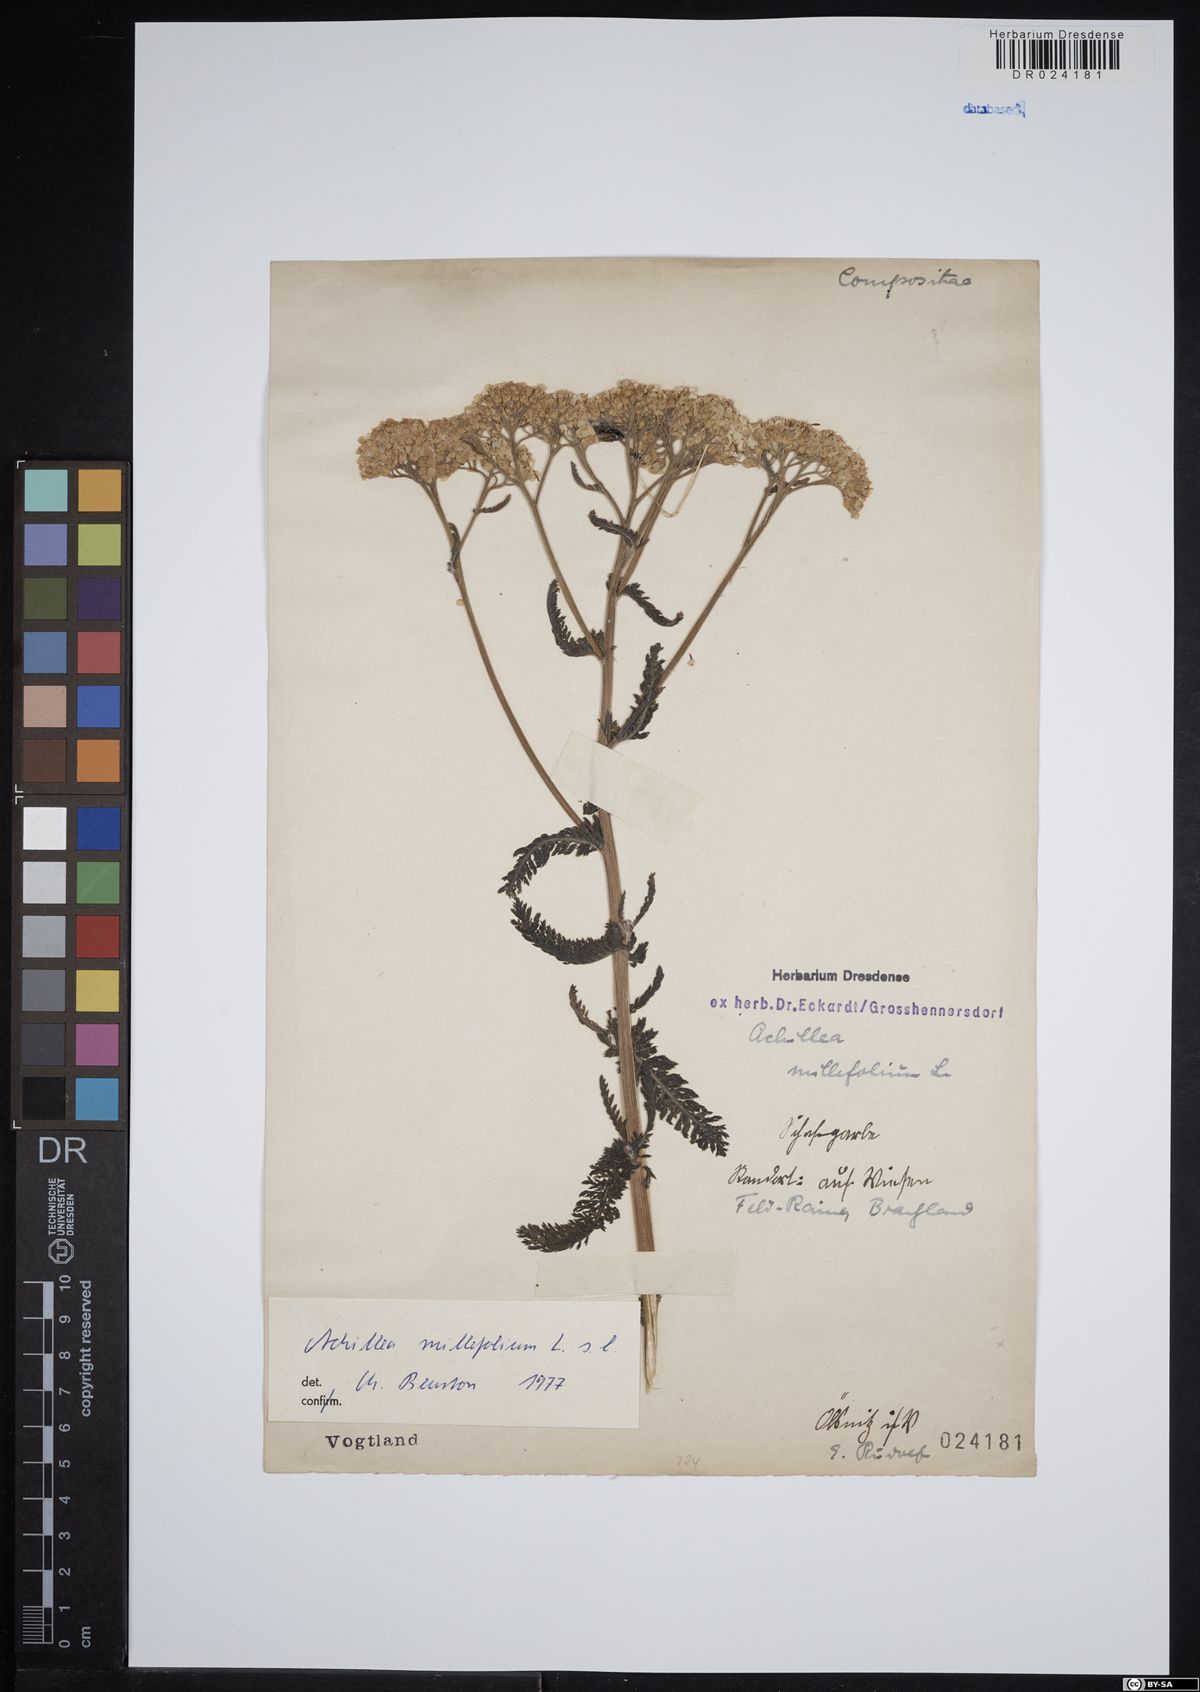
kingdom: Plantae
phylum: Tracheophyta
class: Magnoliopsida
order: Asterales
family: Asteraceae
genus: Achillea
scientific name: Achillea millefolium
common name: Yarrow
